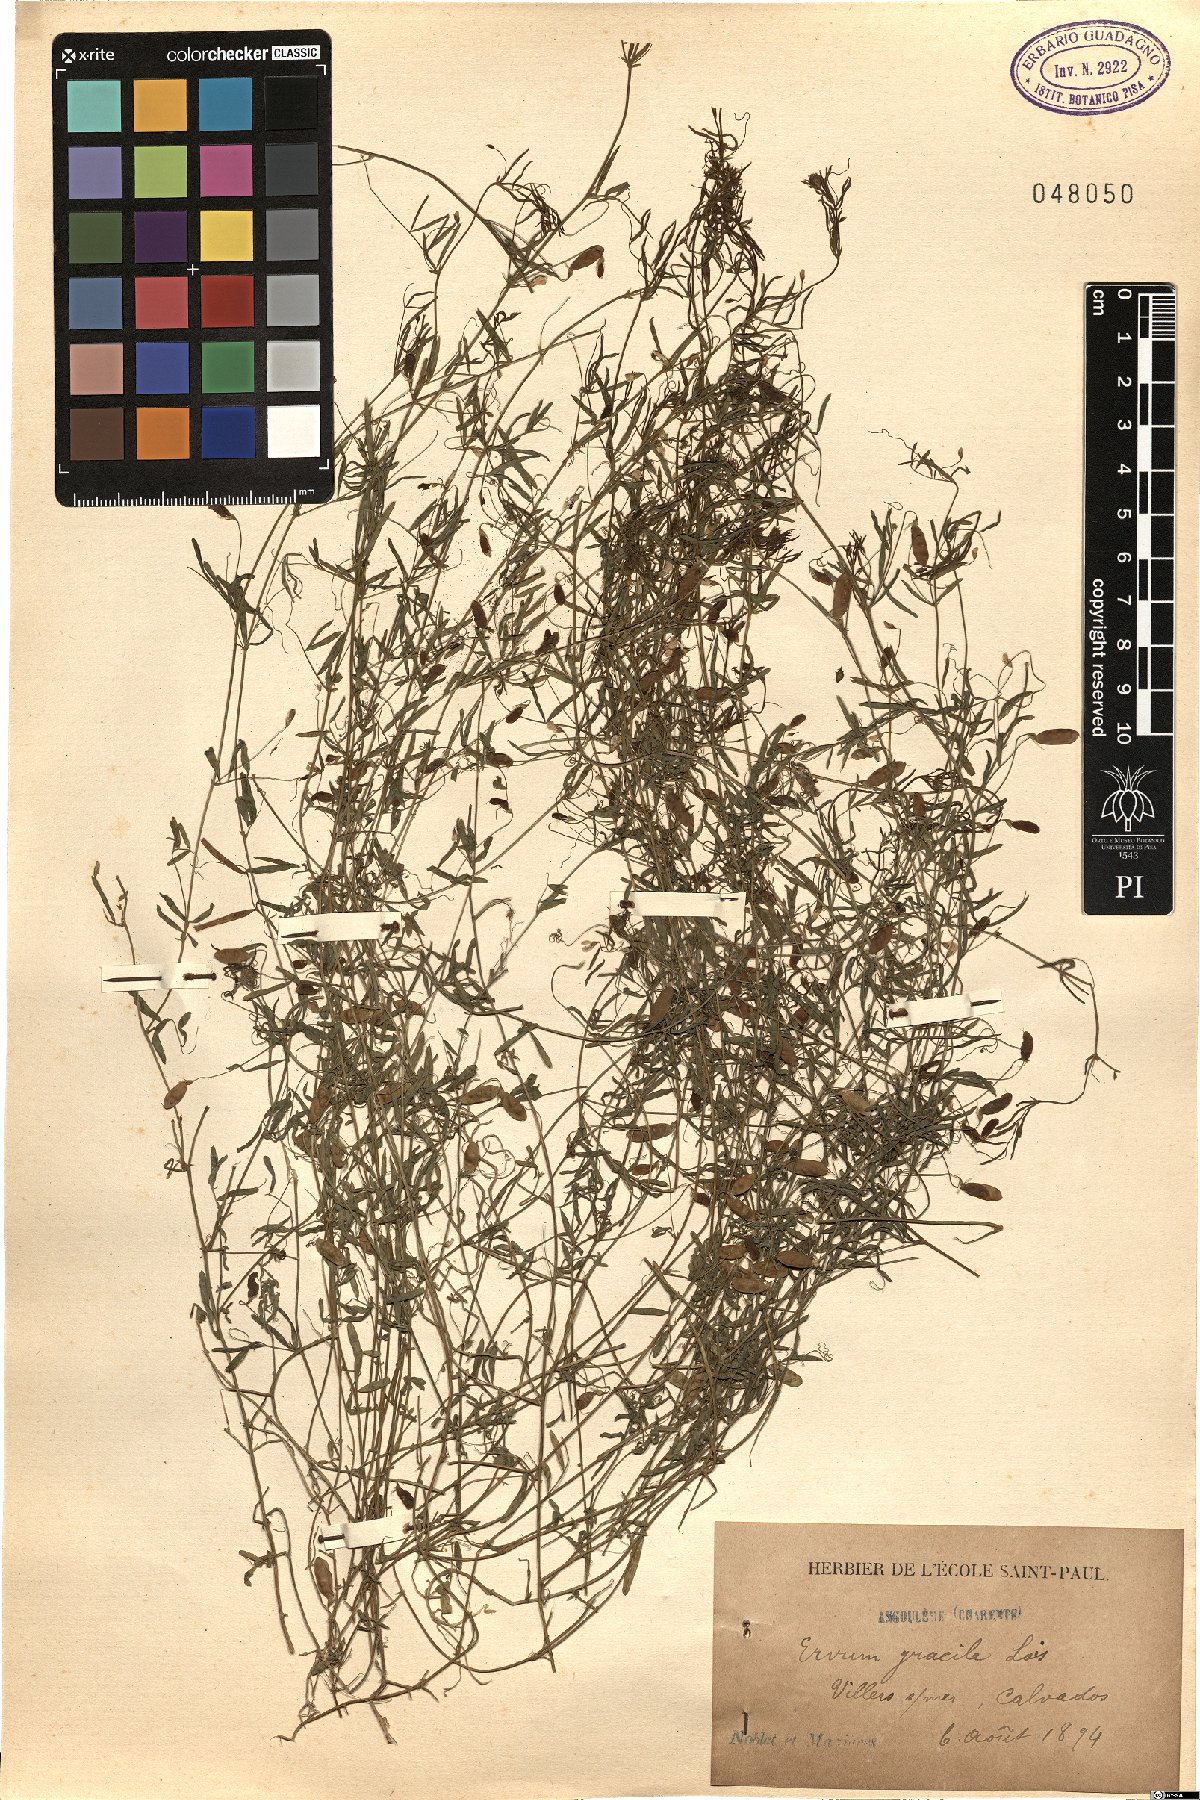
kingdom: Plantae
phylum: Tracheophyta
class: Magnoliopsida
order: Fabales
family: Fabaceae
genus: Vicia
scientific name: Vicia parviflora
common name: Slender tare
